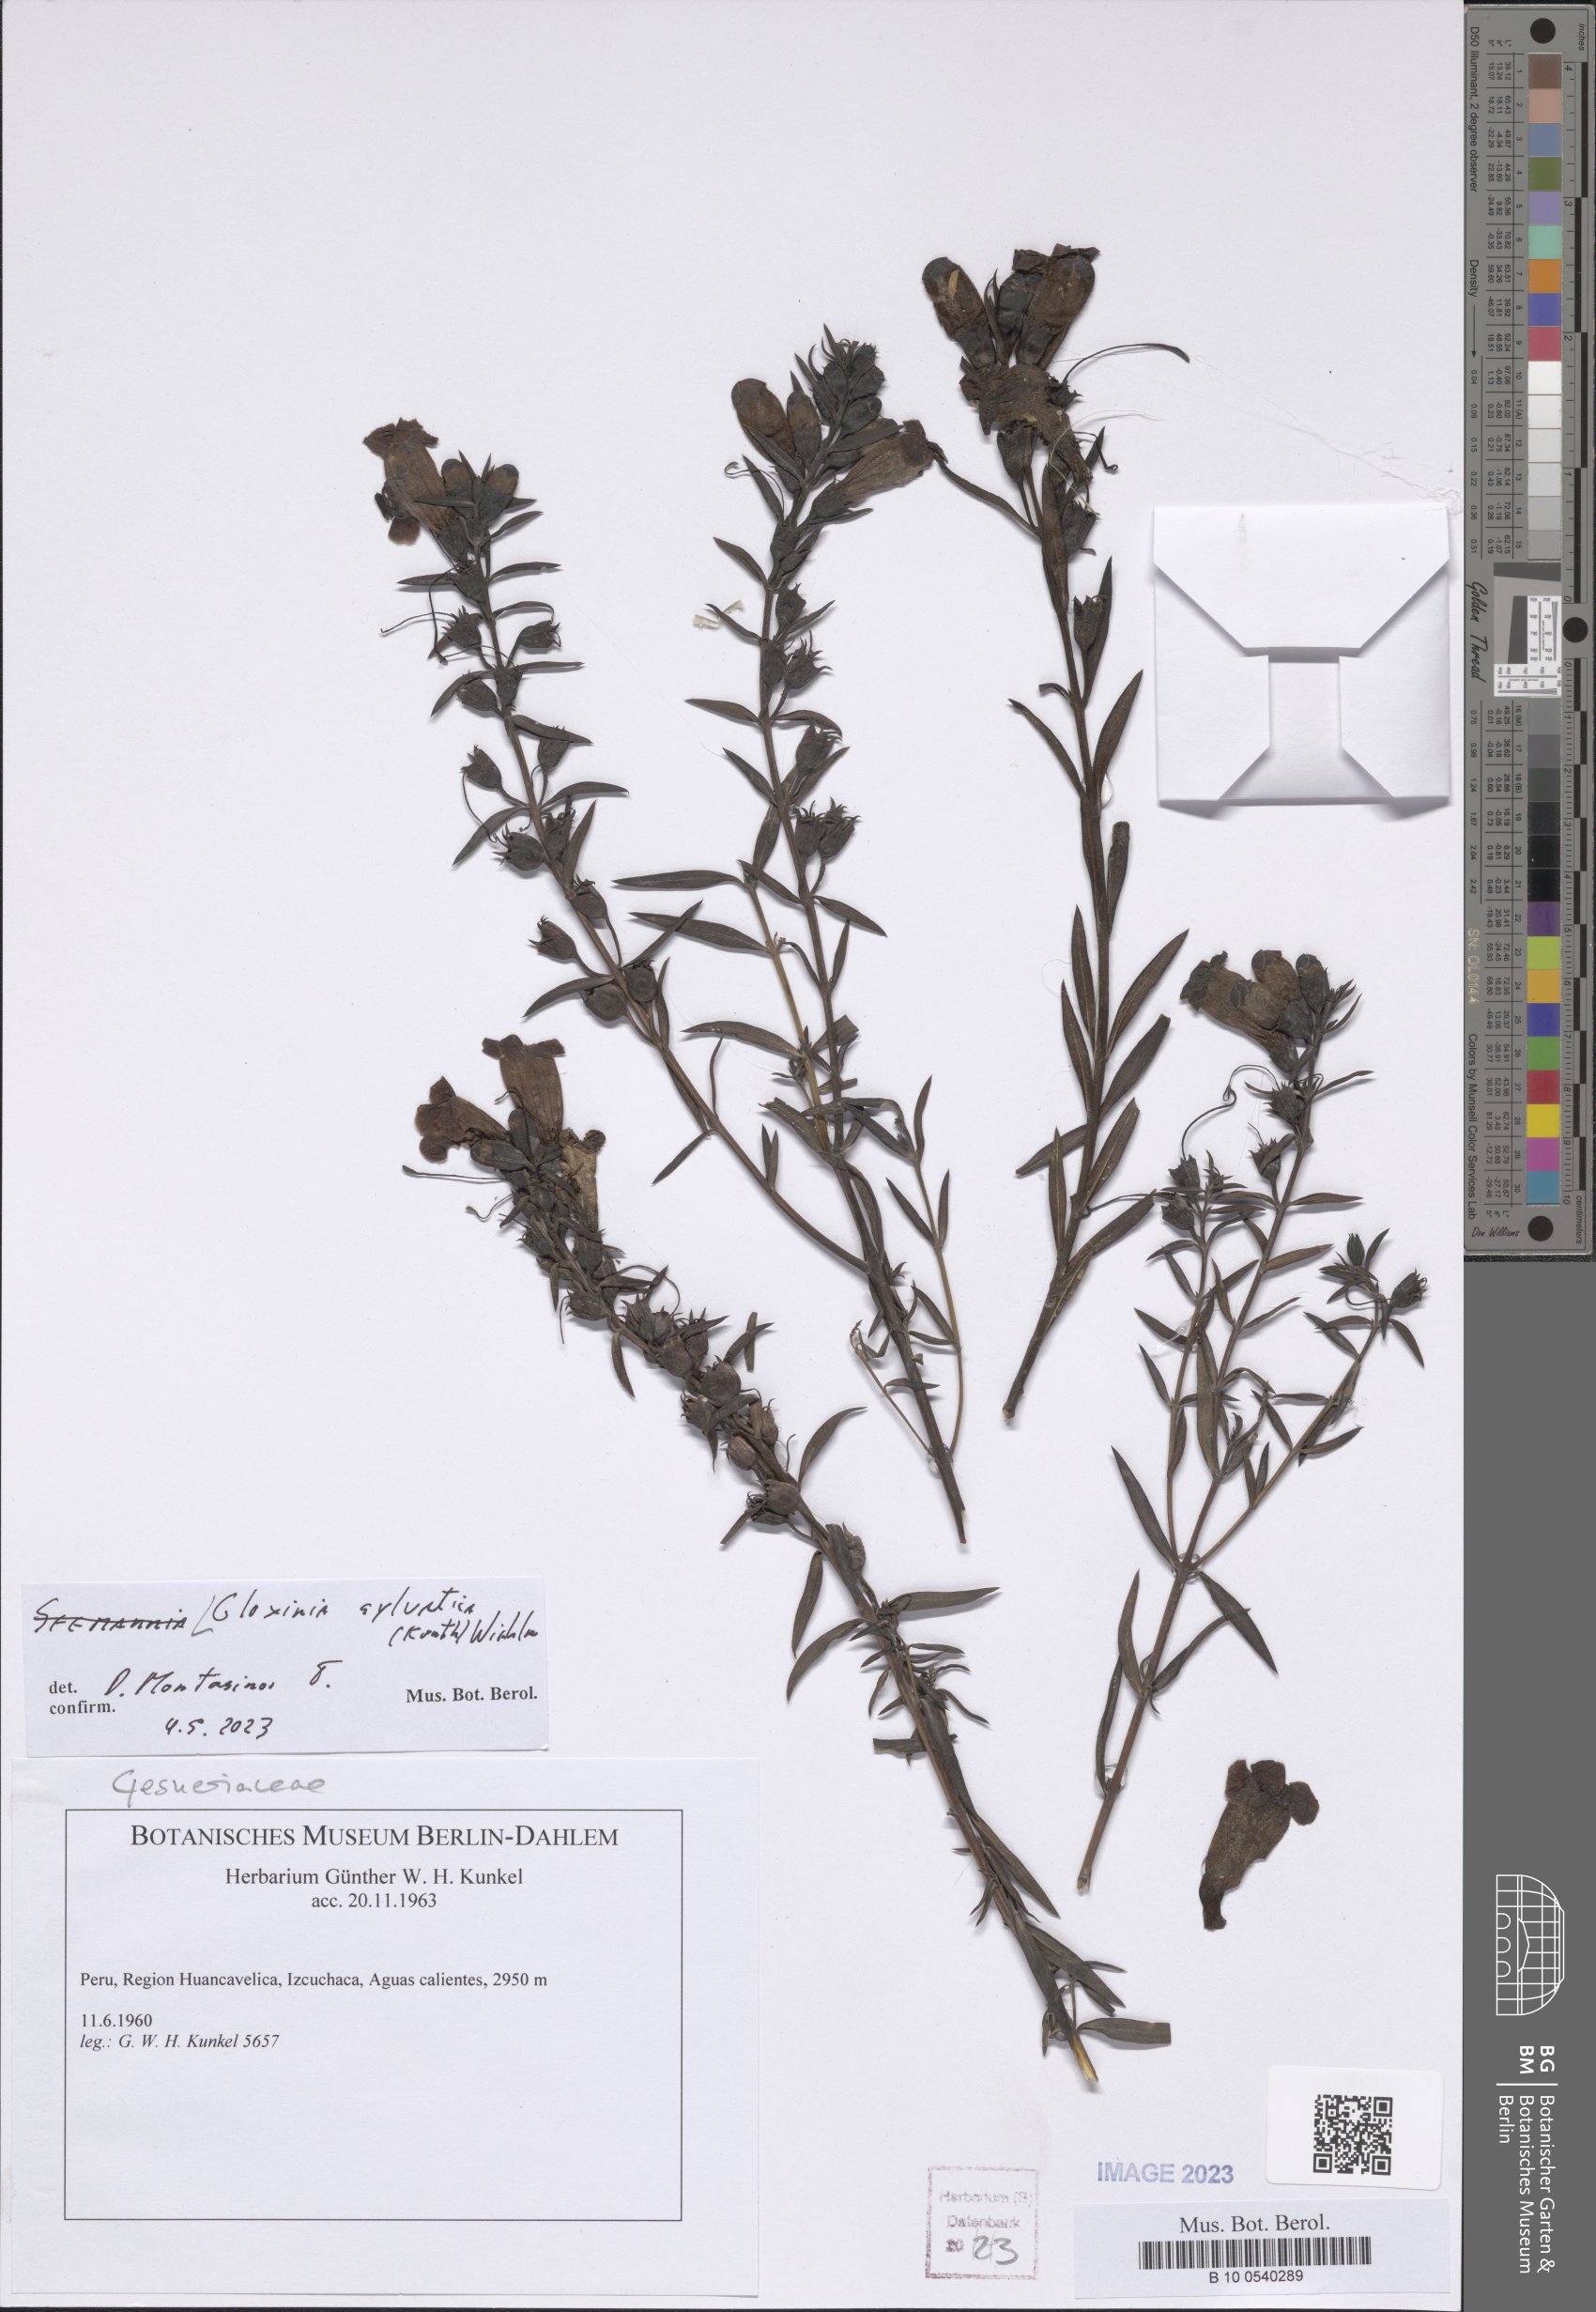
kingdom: Plantae
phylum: Tracheophyta
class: Magnoliopsida
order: Lamiales
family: Gesneriaceae
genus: Seemannia
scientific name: Seemannia sylvatica
